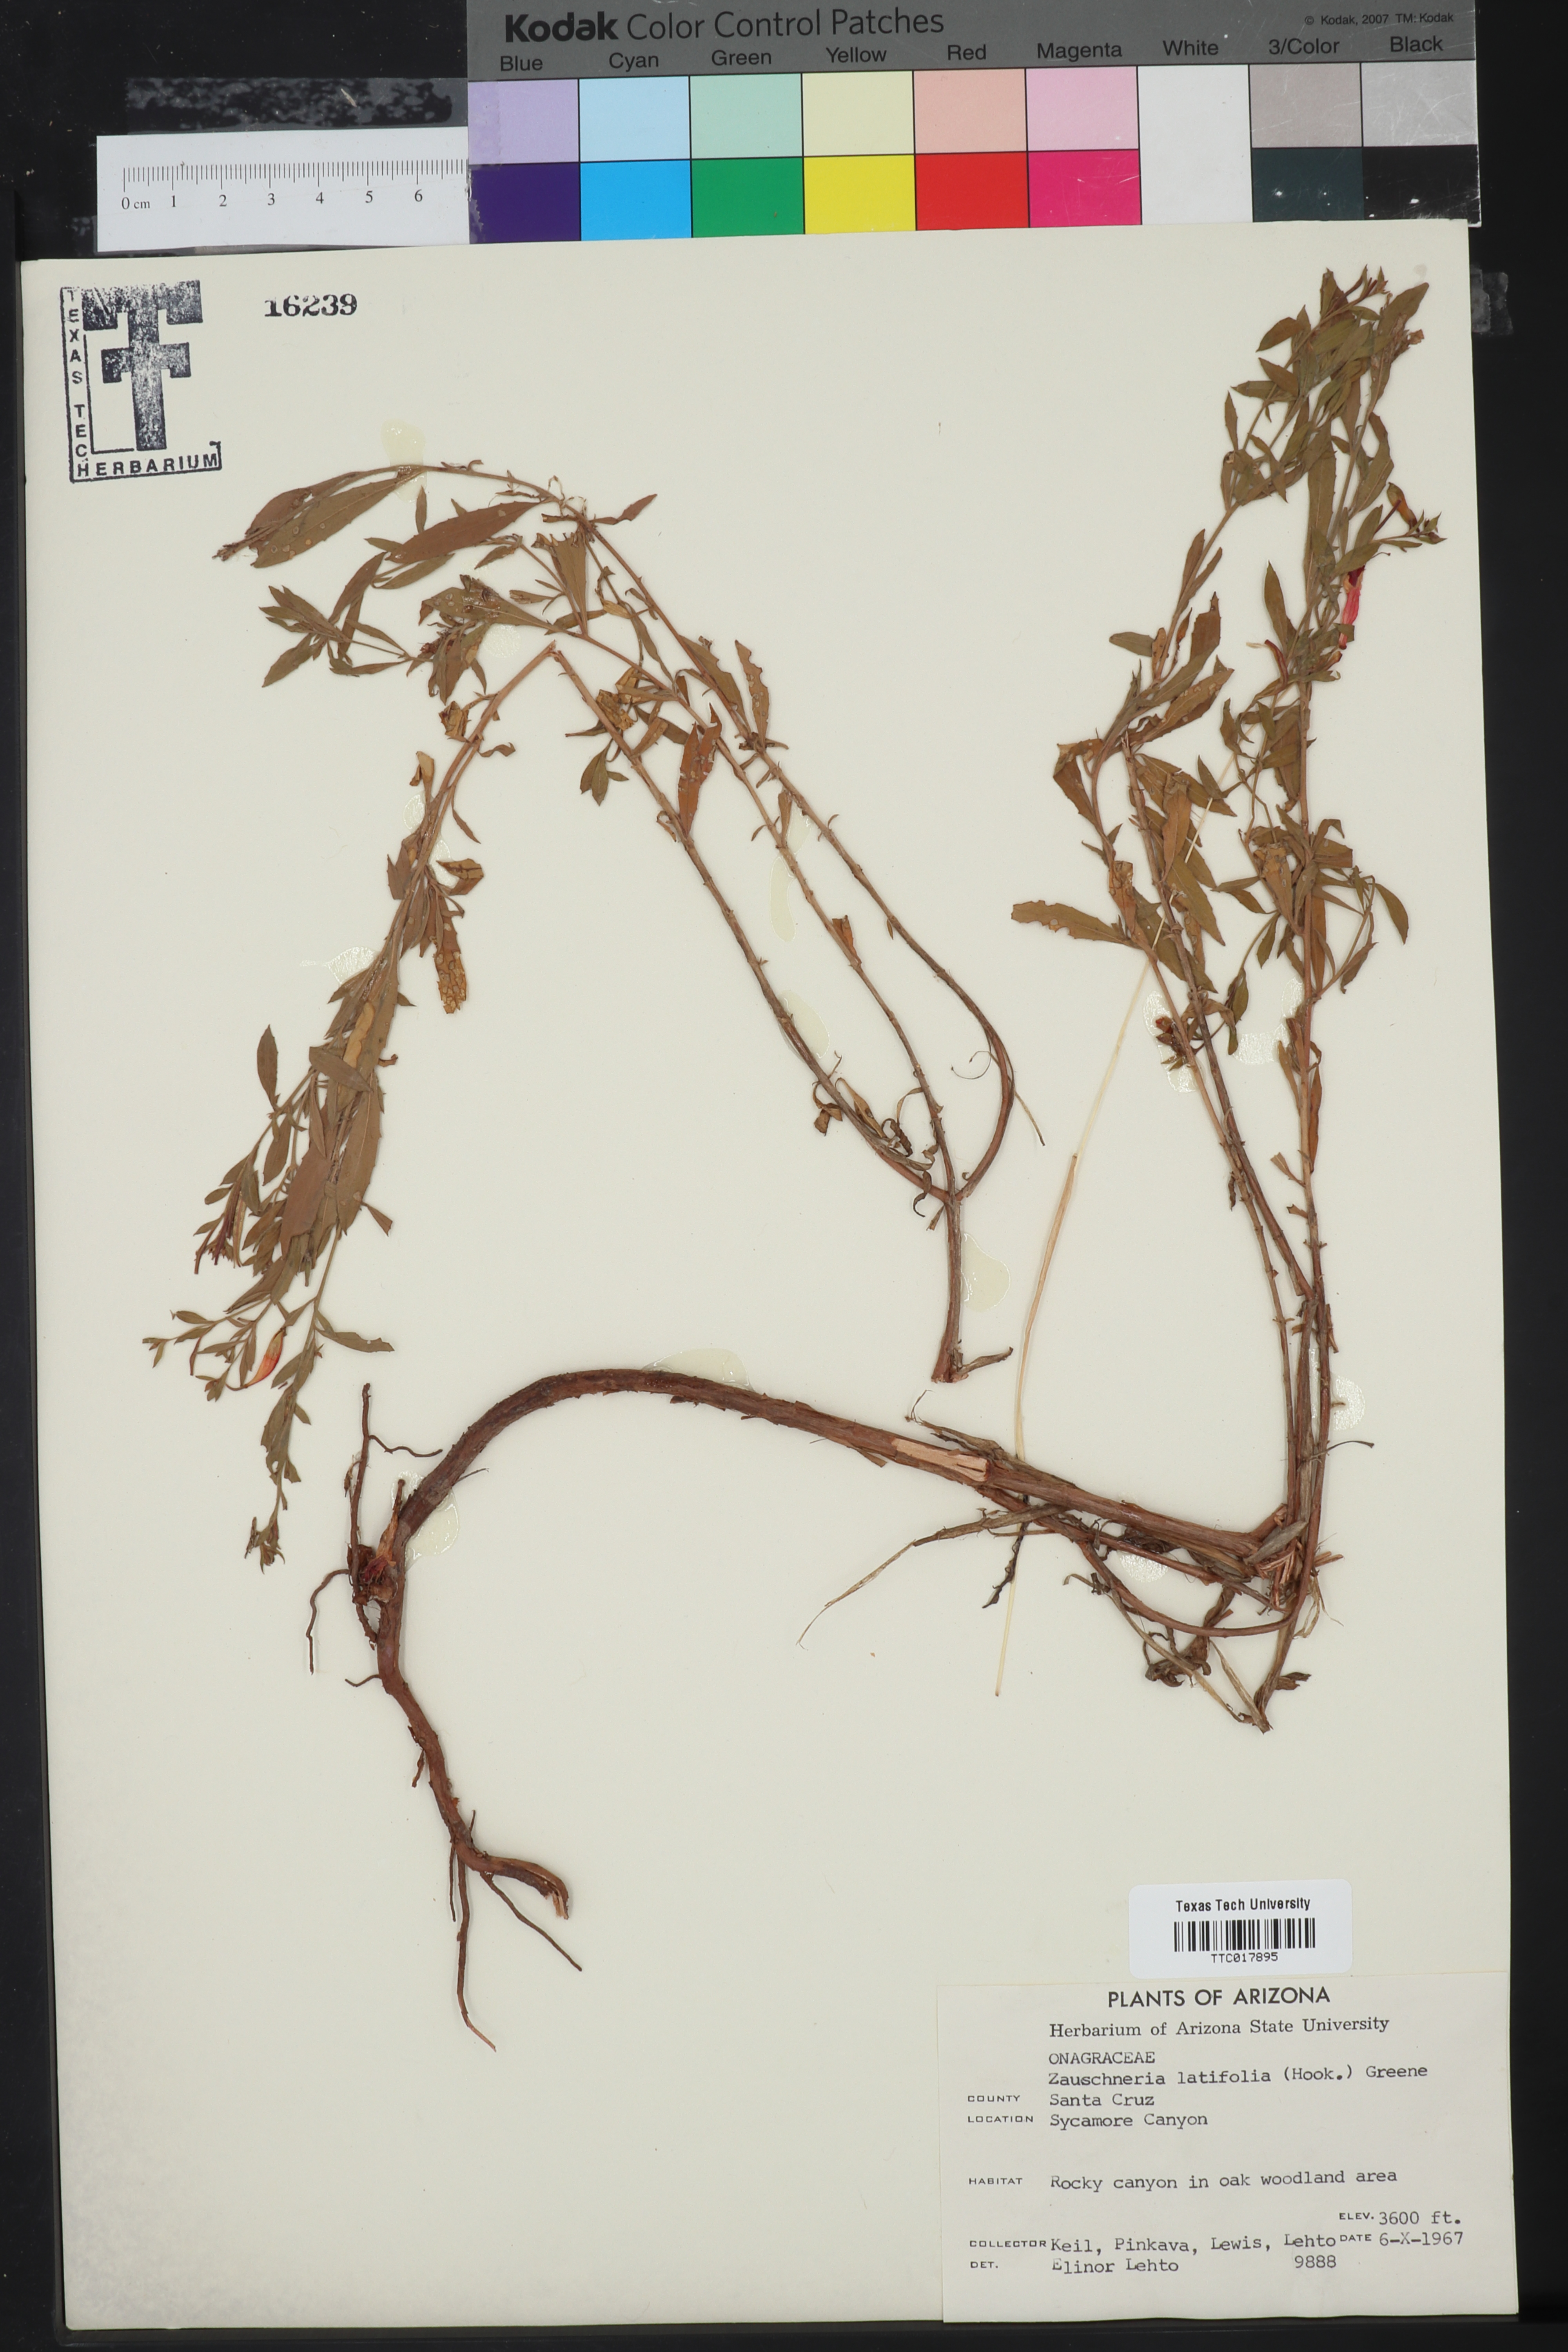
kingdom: Plantae
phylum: Tracheophyta
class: Magnoliopsida
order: Myrtales
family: Onagraceae
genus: Epilobium
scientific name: Epilobium canum
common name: California-fuchsia
